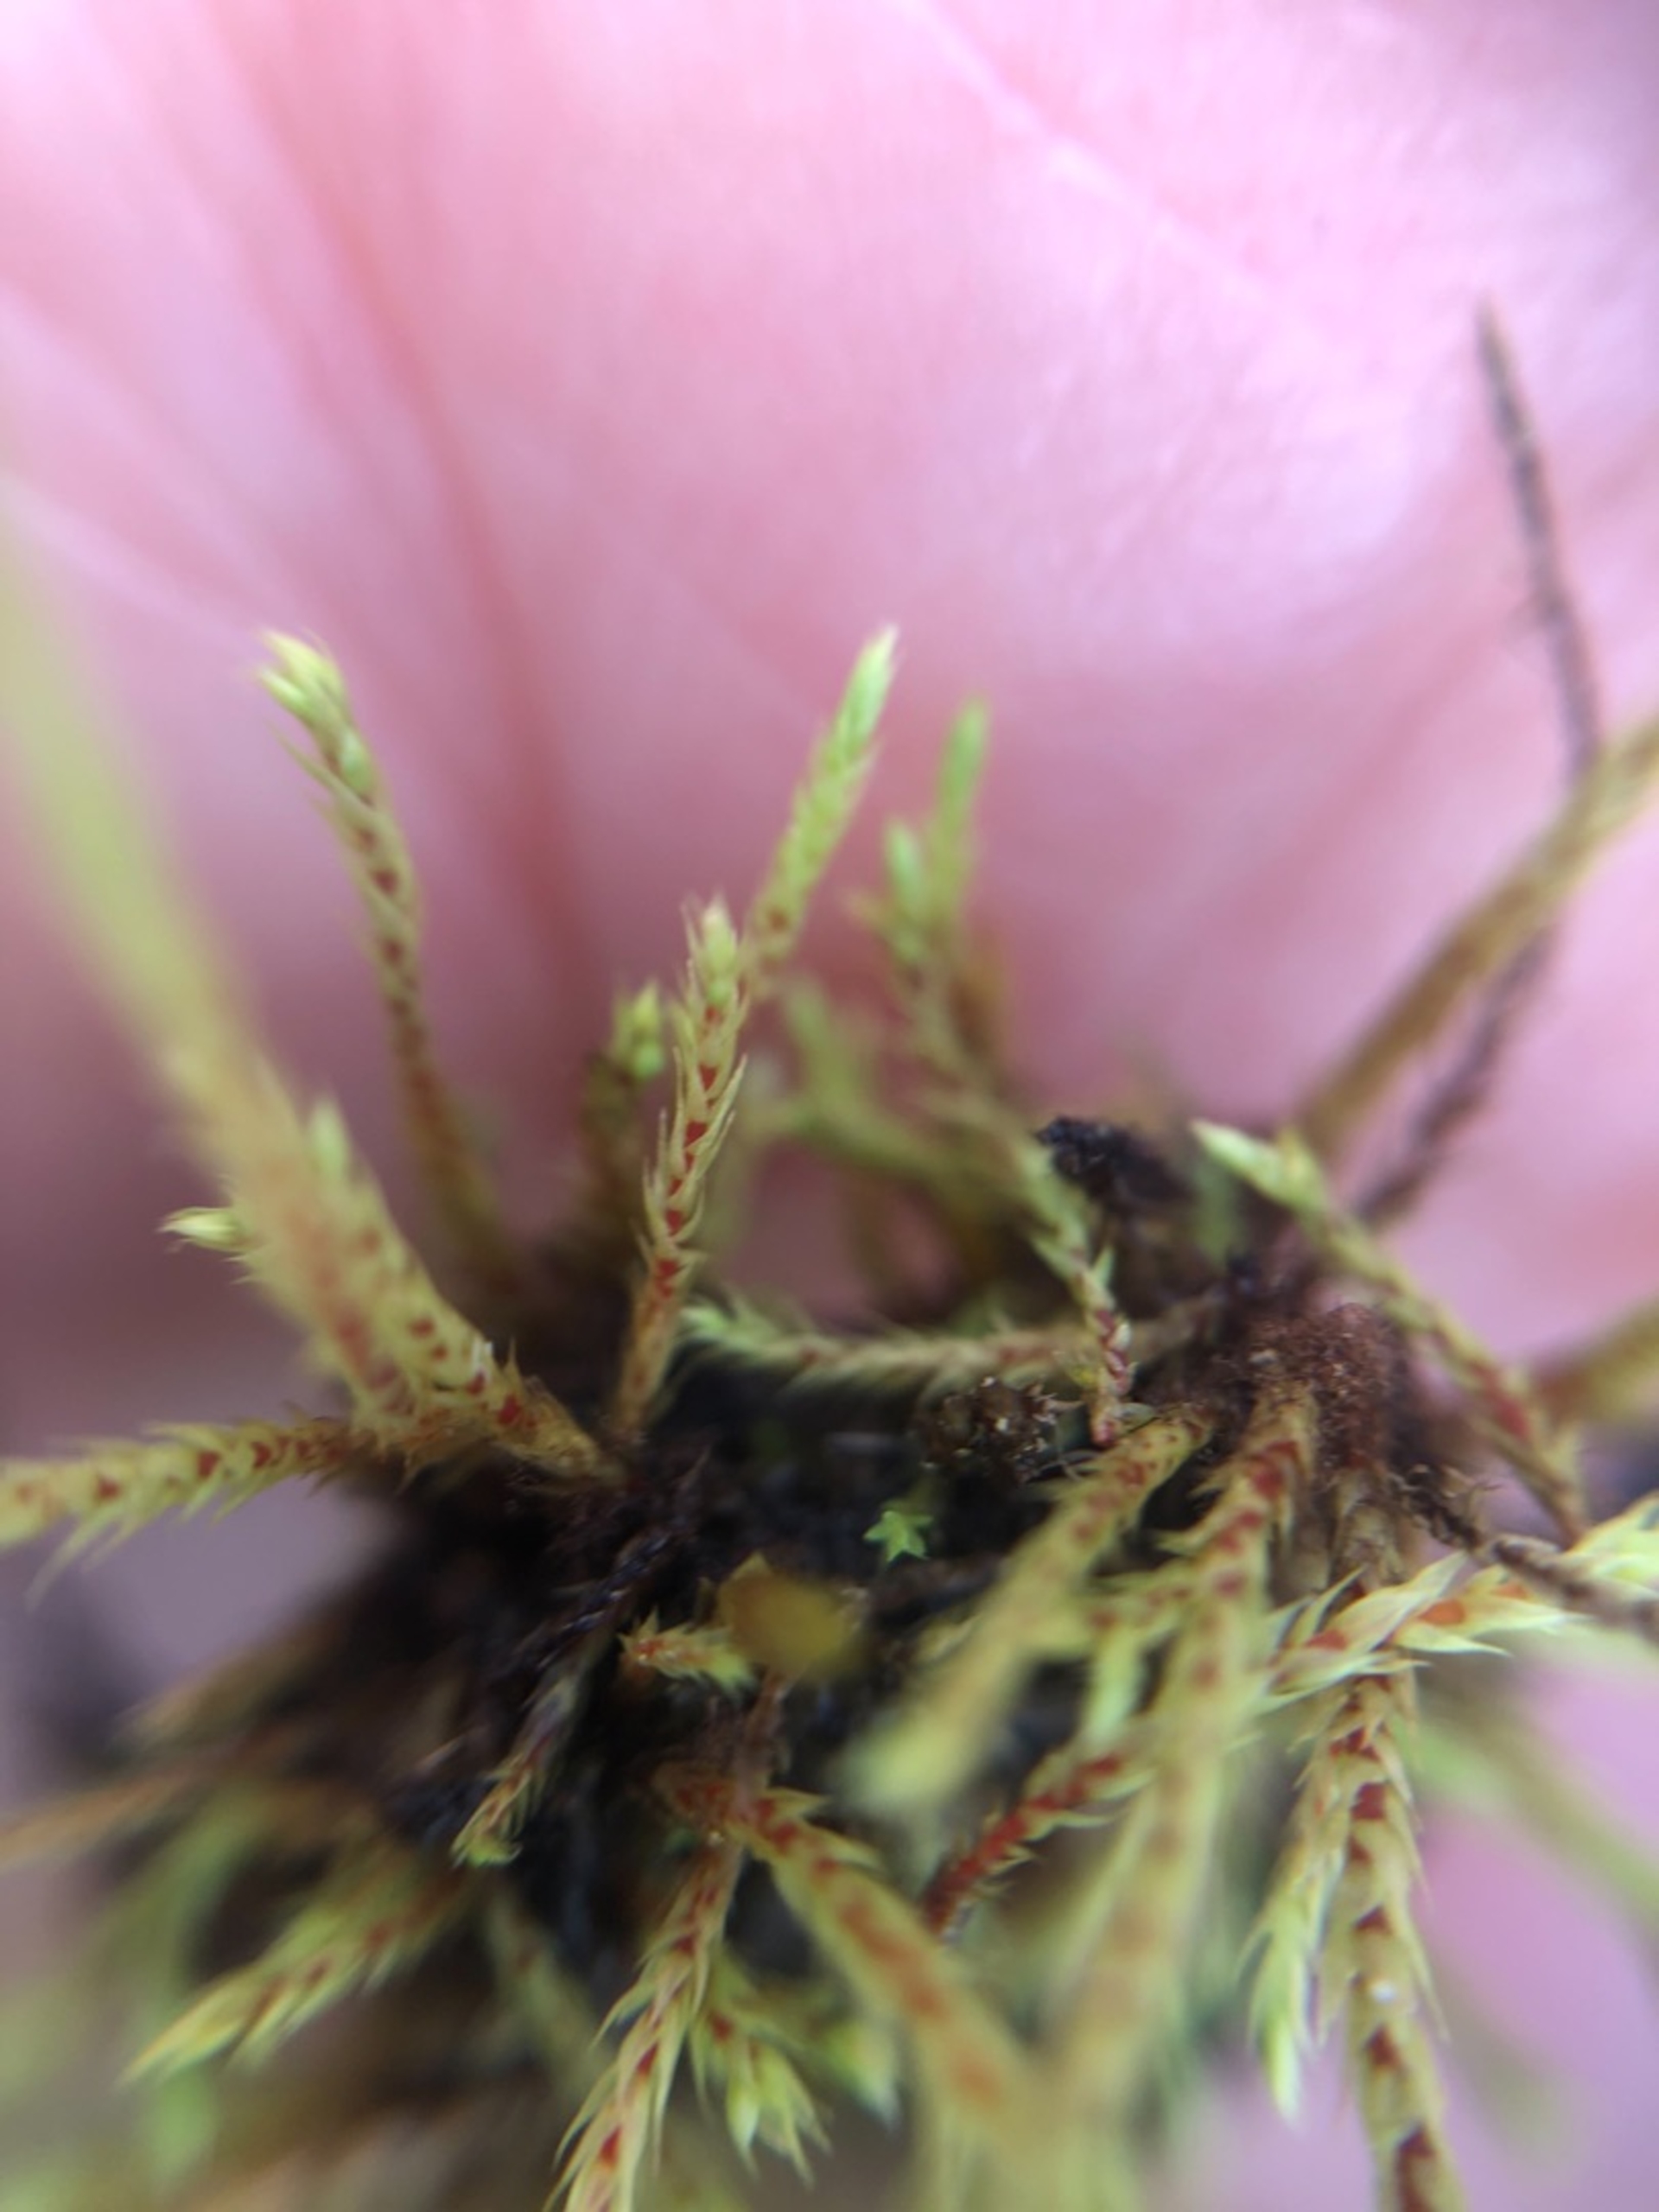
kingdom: Plantae
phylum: Bryophyta
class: Bryopsida
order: Bartramiales
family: Bartramiaceae
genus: Philonotis
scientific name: Philonotis
